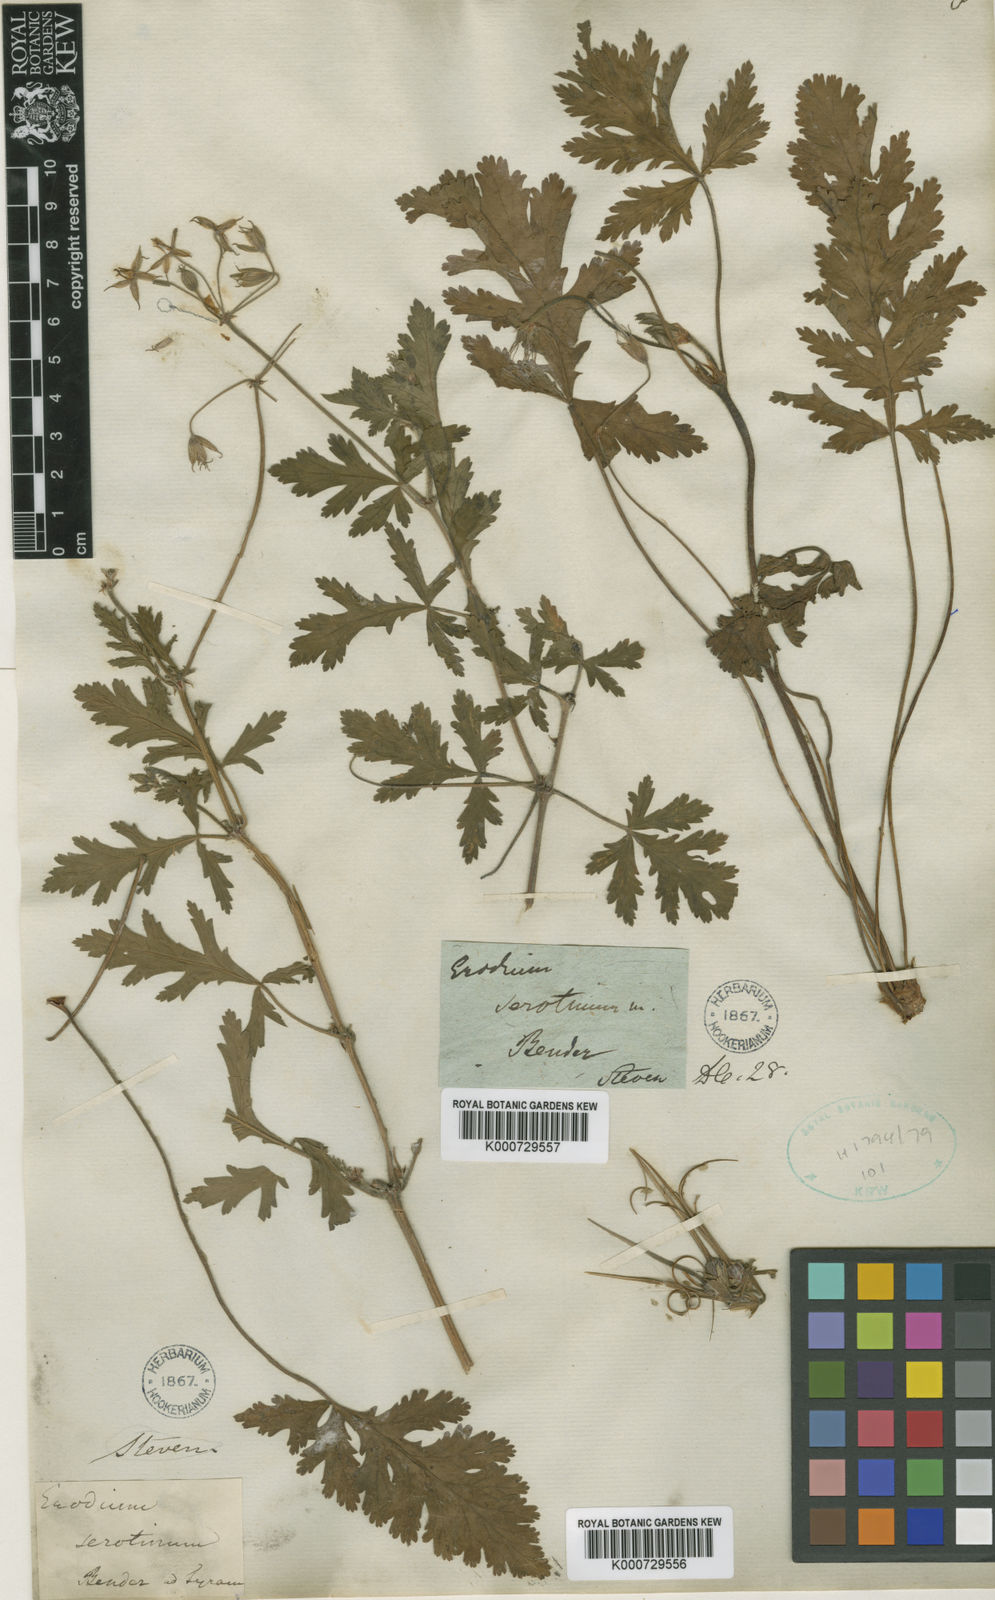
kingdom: Plantae
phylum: Tracheophyta
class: Magnoliopsida
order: Geraniales
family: Geraniaceae
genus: Erodium
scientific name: Erodium ruthenicum
